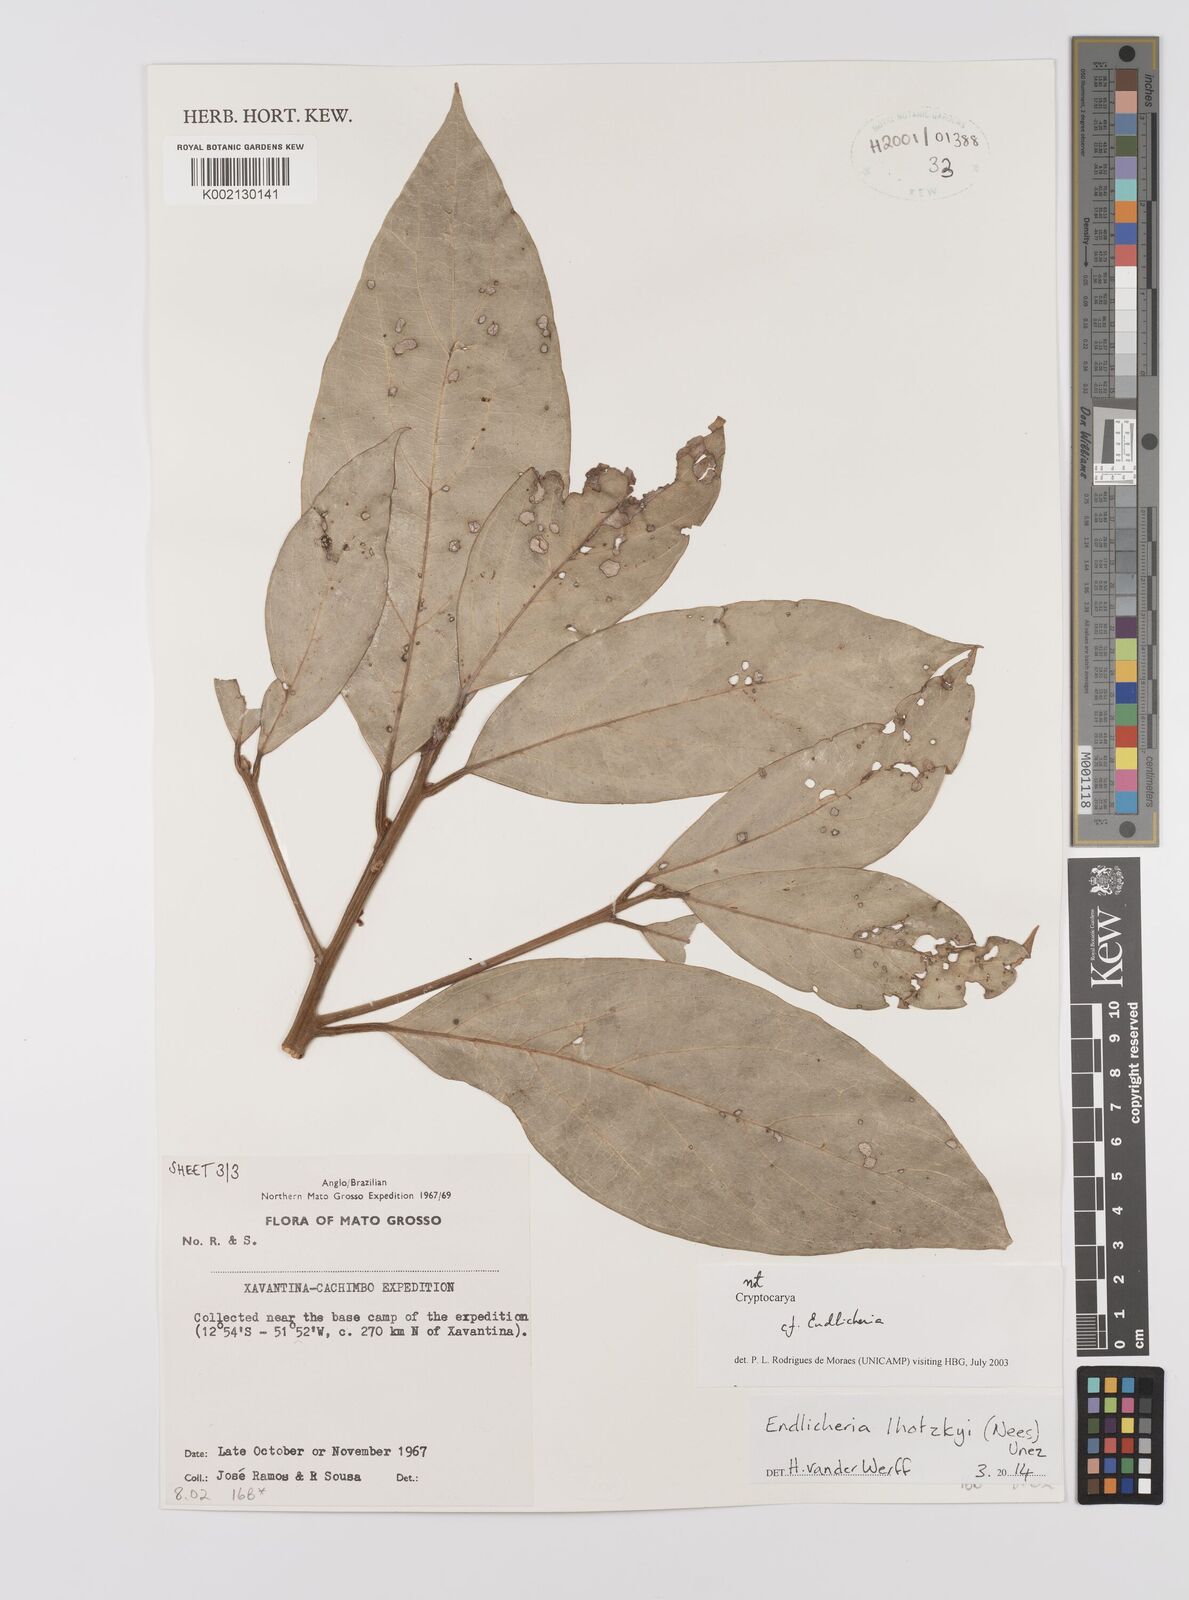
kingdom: Plantae
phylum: Tracheophyta
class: Magnoliopsida
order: Laurales
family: Lauraceae
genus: Endlicheria
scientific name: Endlicheria lhotzkyi
